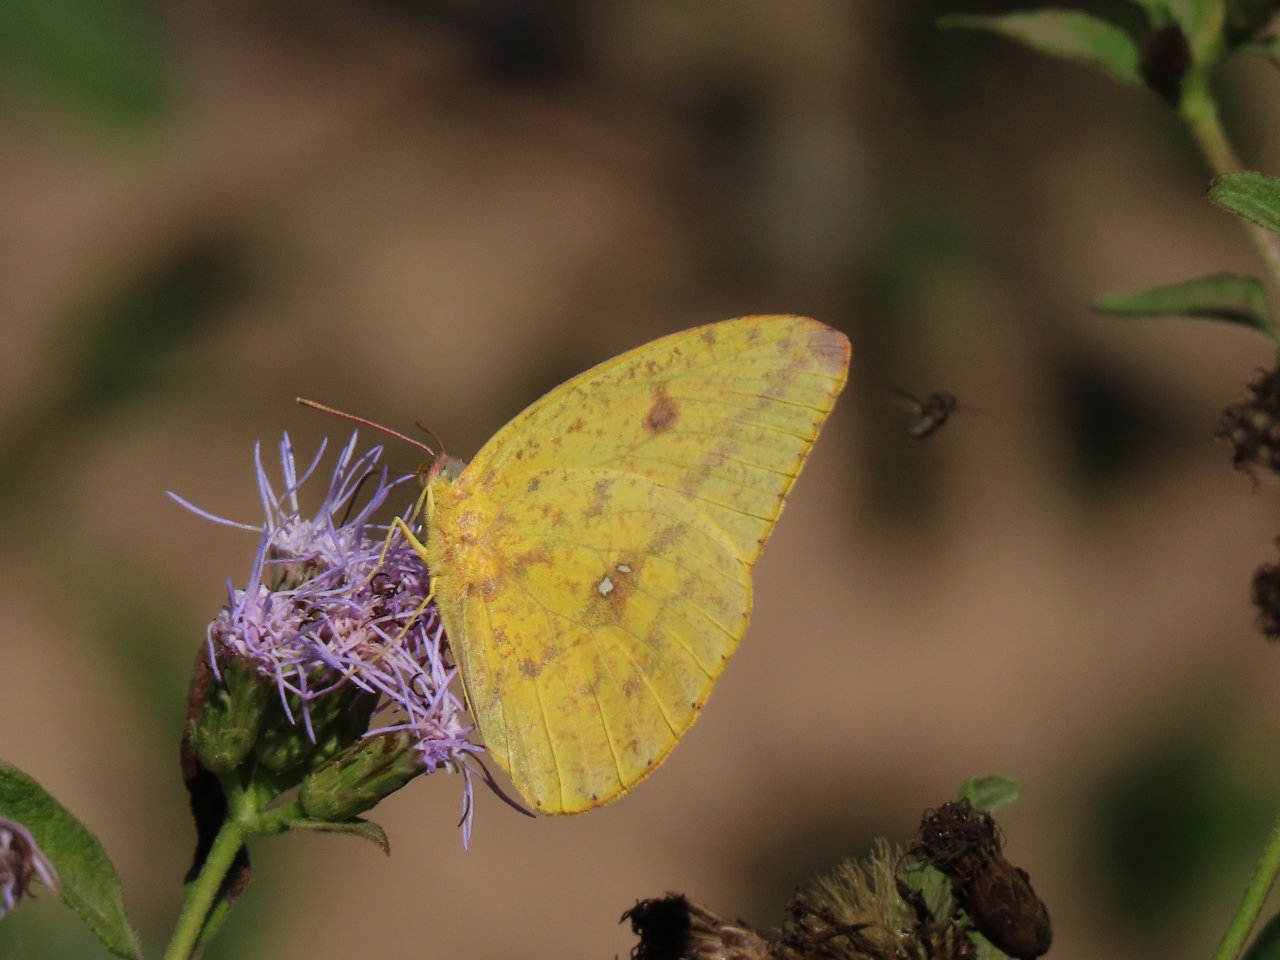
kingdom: Animalia
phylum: Arthropoda
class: Insecta
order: Lepidoptera
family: Pieridae
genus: Phoebis
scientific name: Phoebis sennae
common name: Cloudless Sulphur
